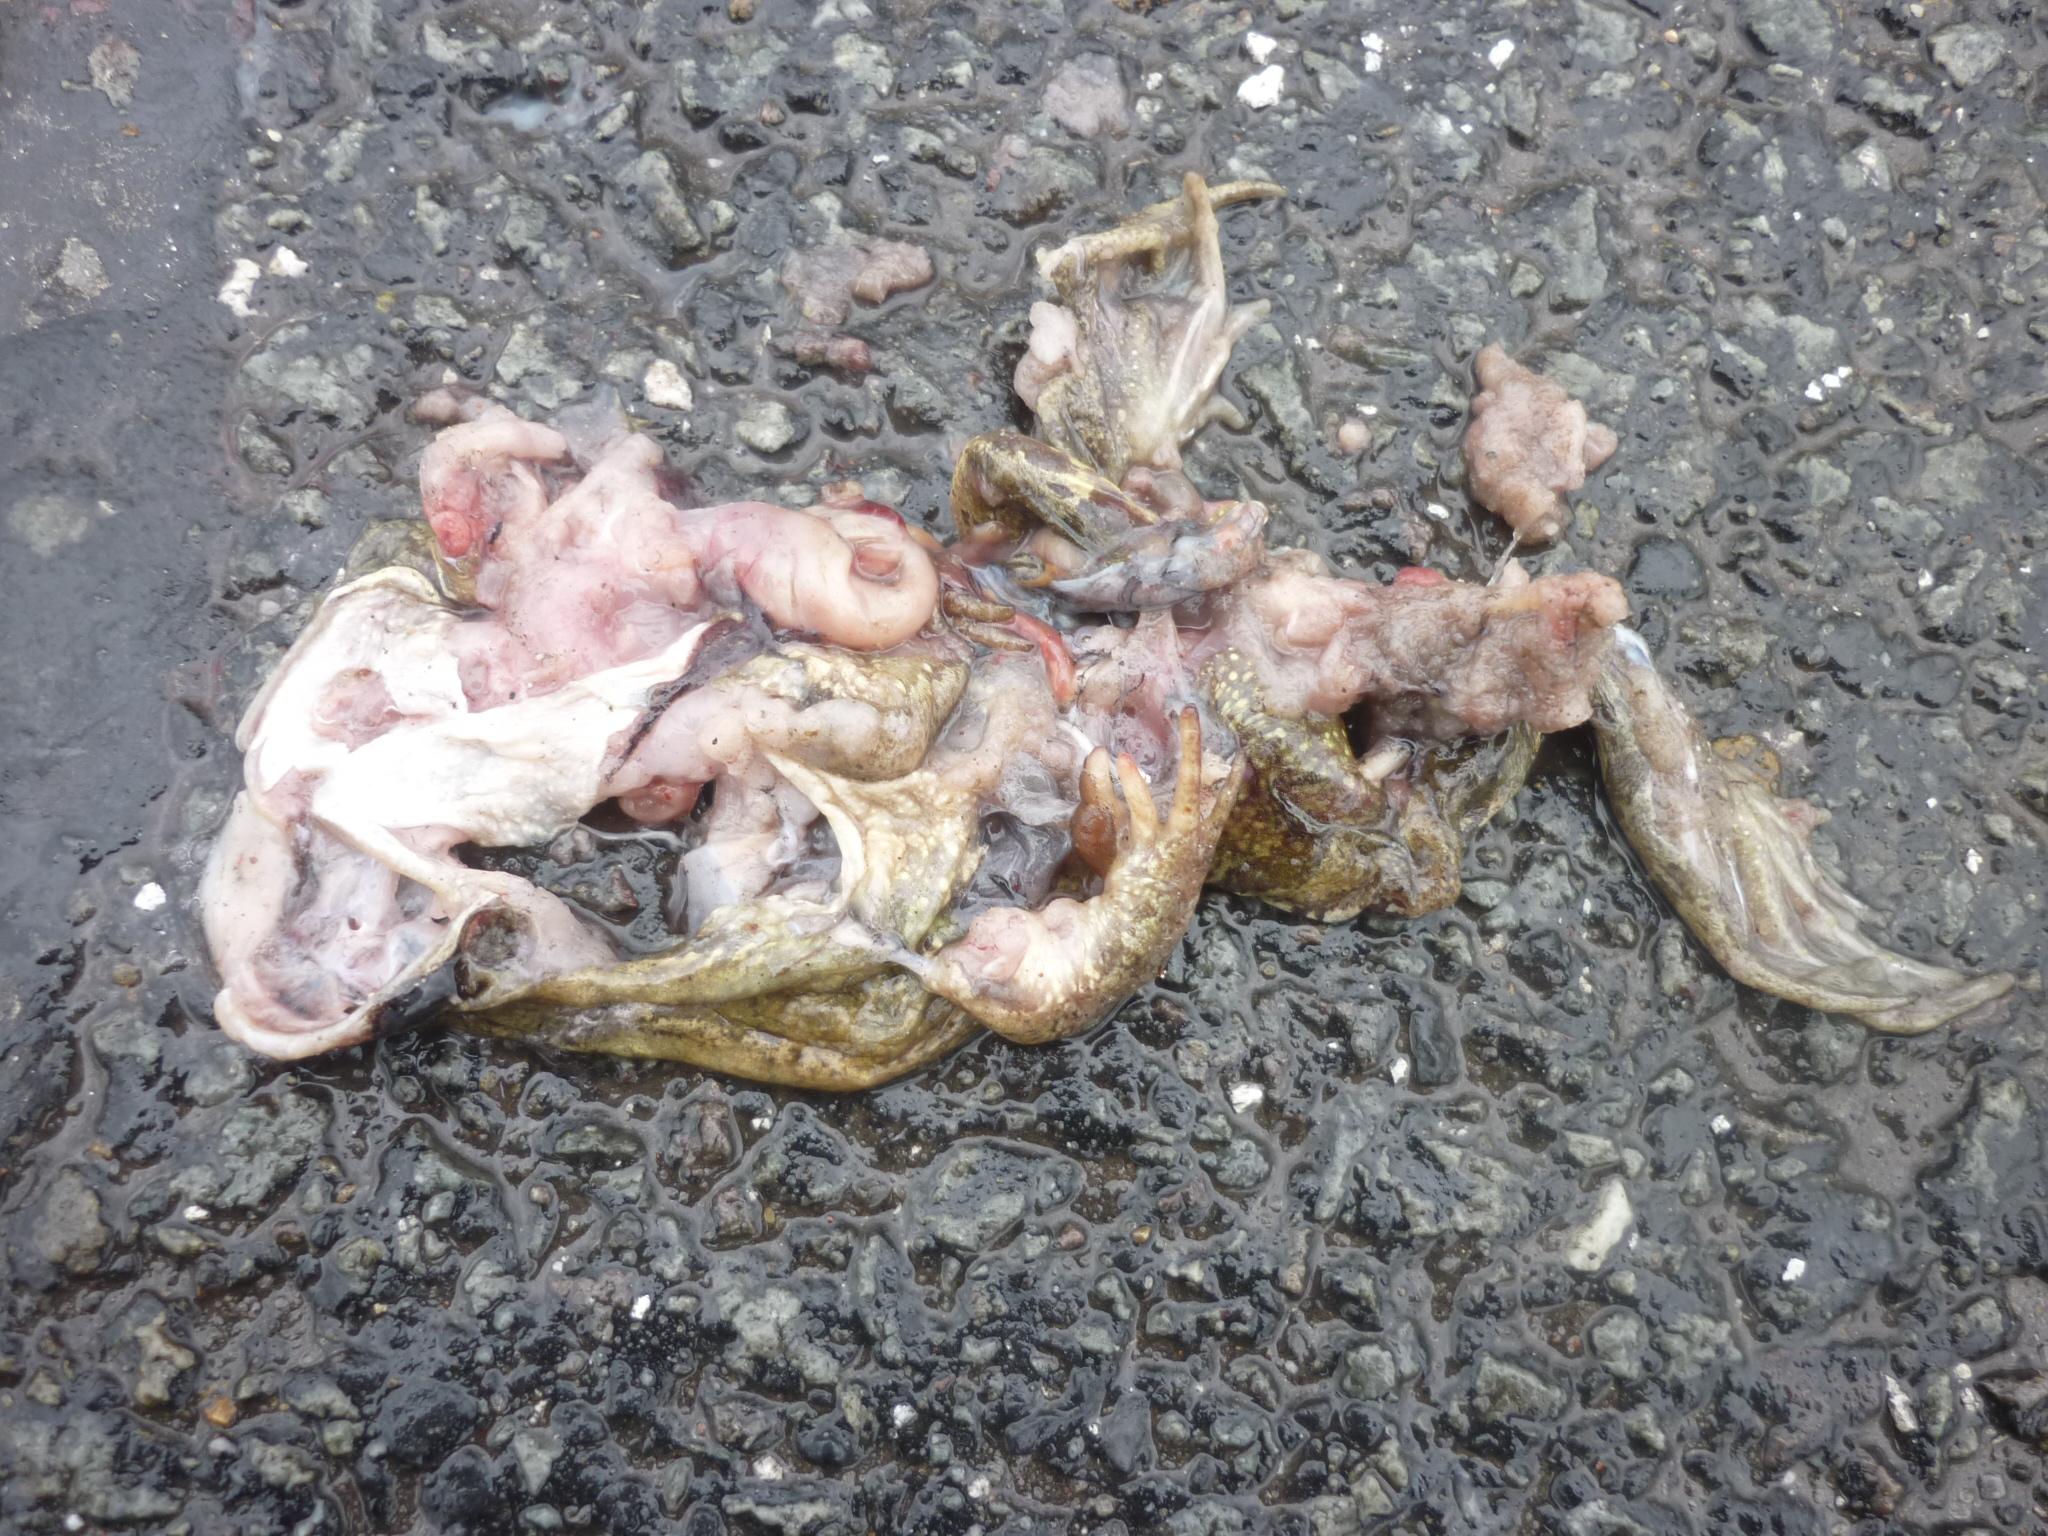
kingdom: Animalia
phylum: Chordata
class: Amphibia
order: Anura
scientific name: Anura
